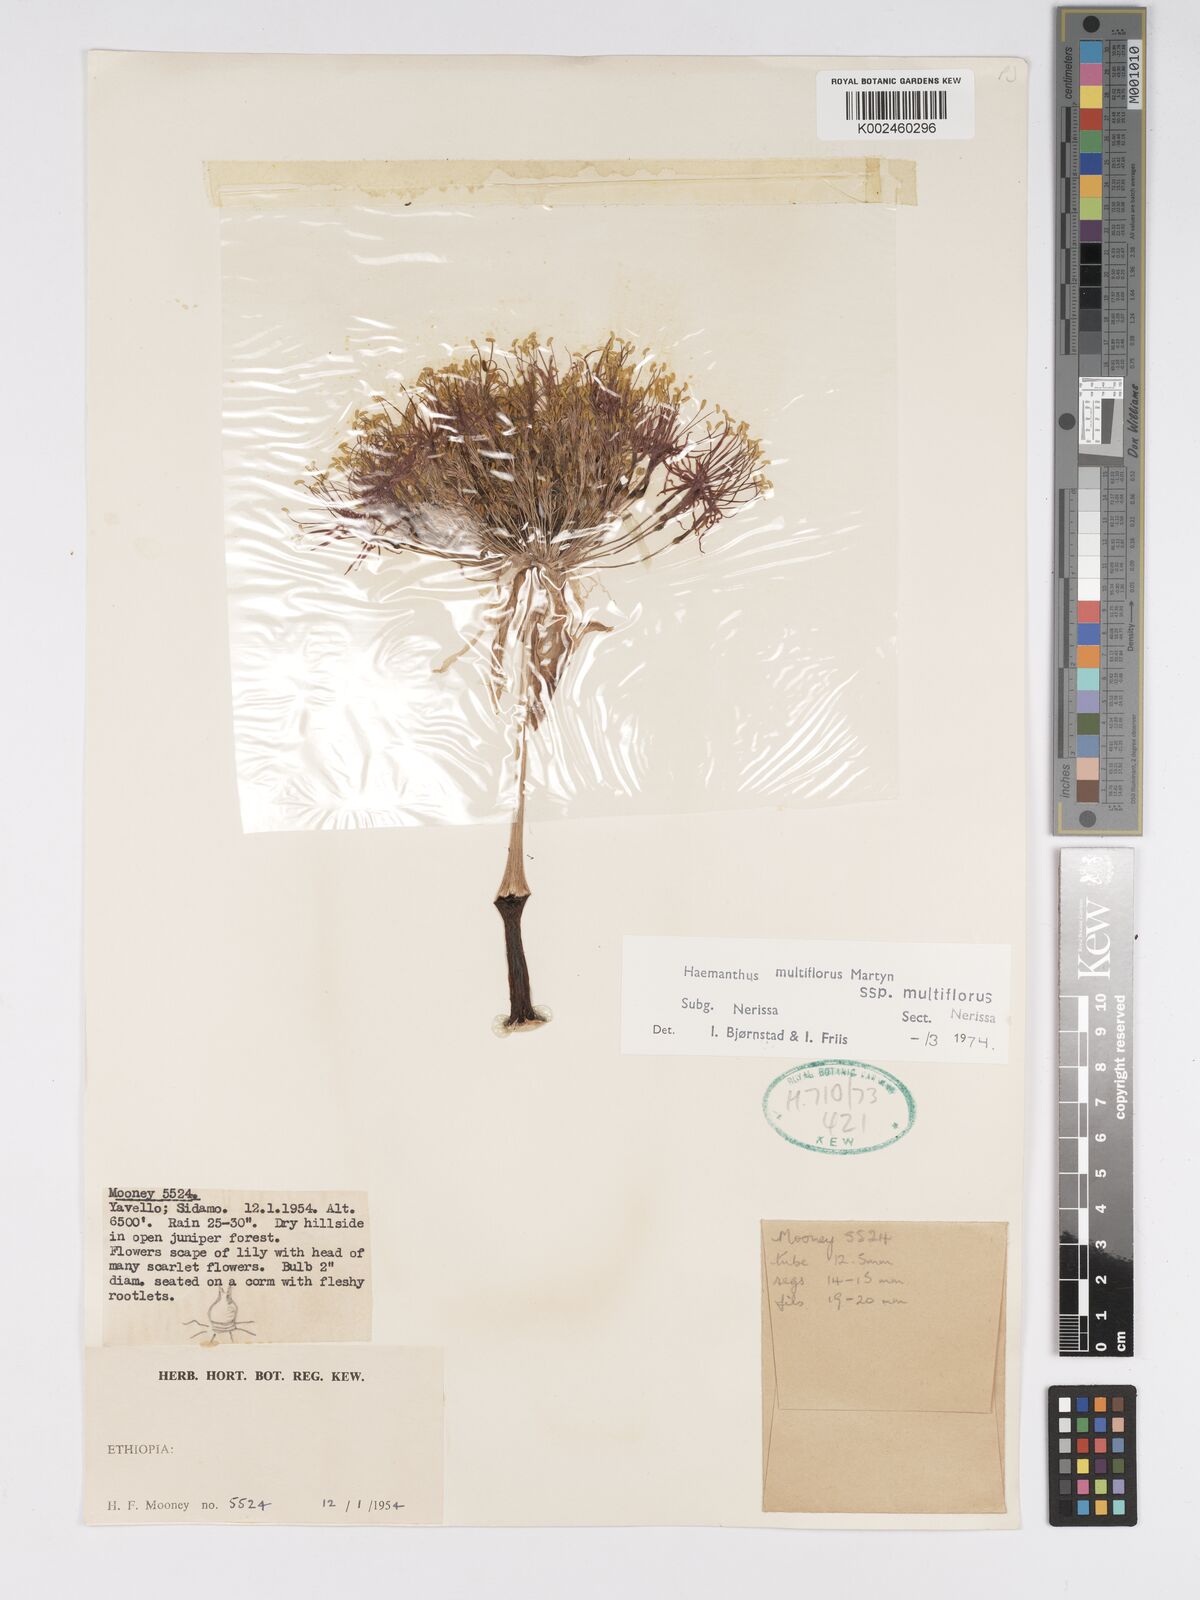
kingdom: Plantae
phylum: Tracheophyta
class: Liliopsida
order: Asparagales
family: Amaryllidaceae
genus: Scadoxus
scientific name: Scadoxus multiflorus
